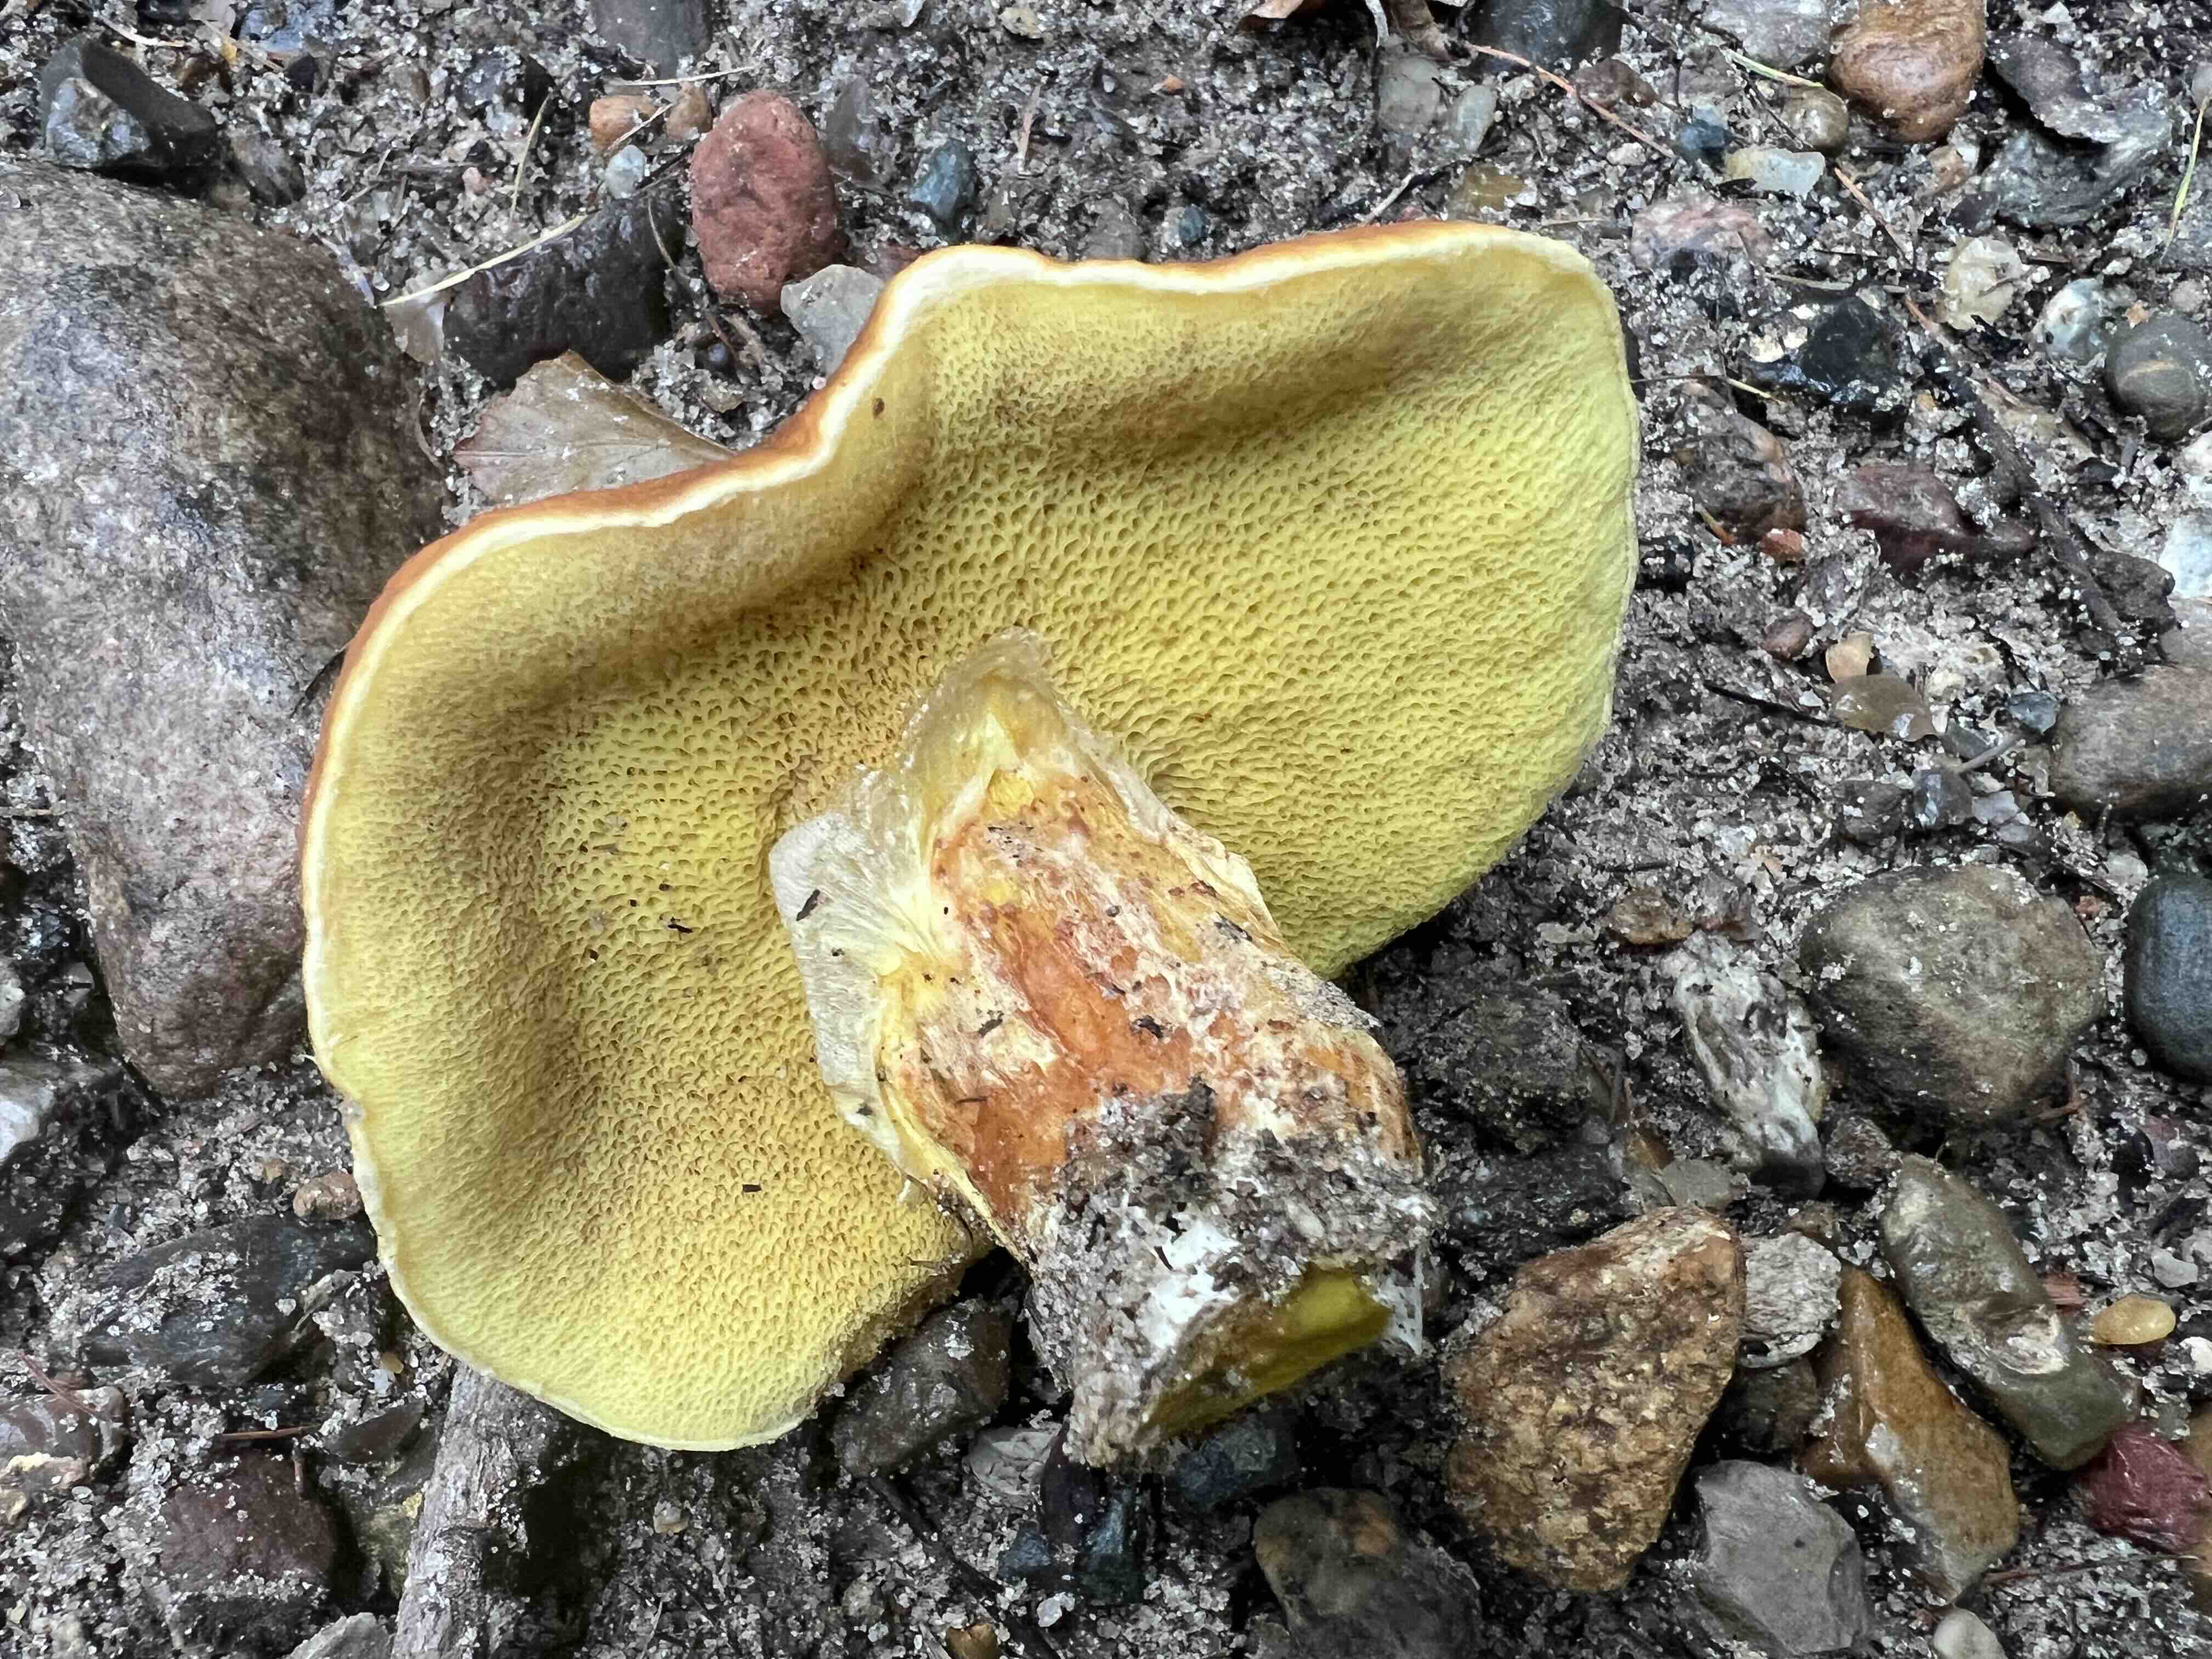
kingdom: Fungi
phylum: Basidiomycota
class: Agaricomycetes
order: Boletales
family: Suillaceae
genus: Suillus
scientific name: Suillus grevillei
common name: lærke-slimrørhat
